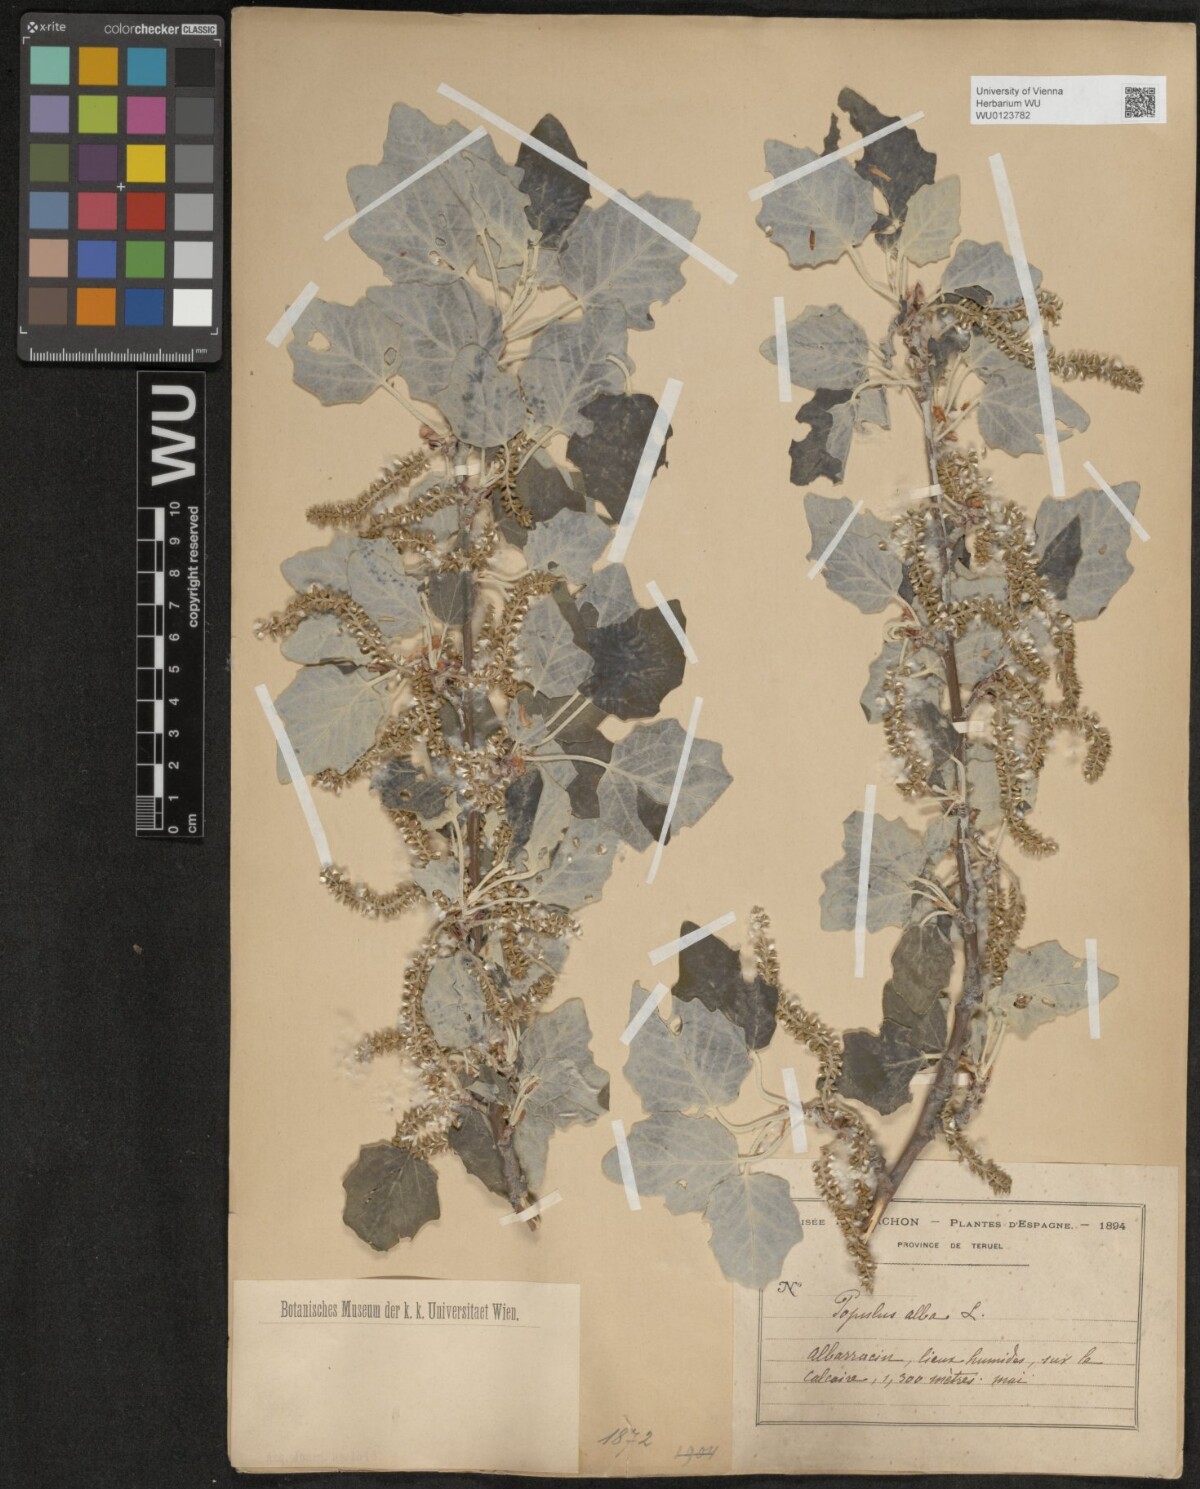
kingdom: Plantae
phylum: Tracheophyta
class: Magnoliopsida
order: Malpighiales
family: Salicaceae
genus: Populus
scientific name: Populus alba
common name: White poplar
